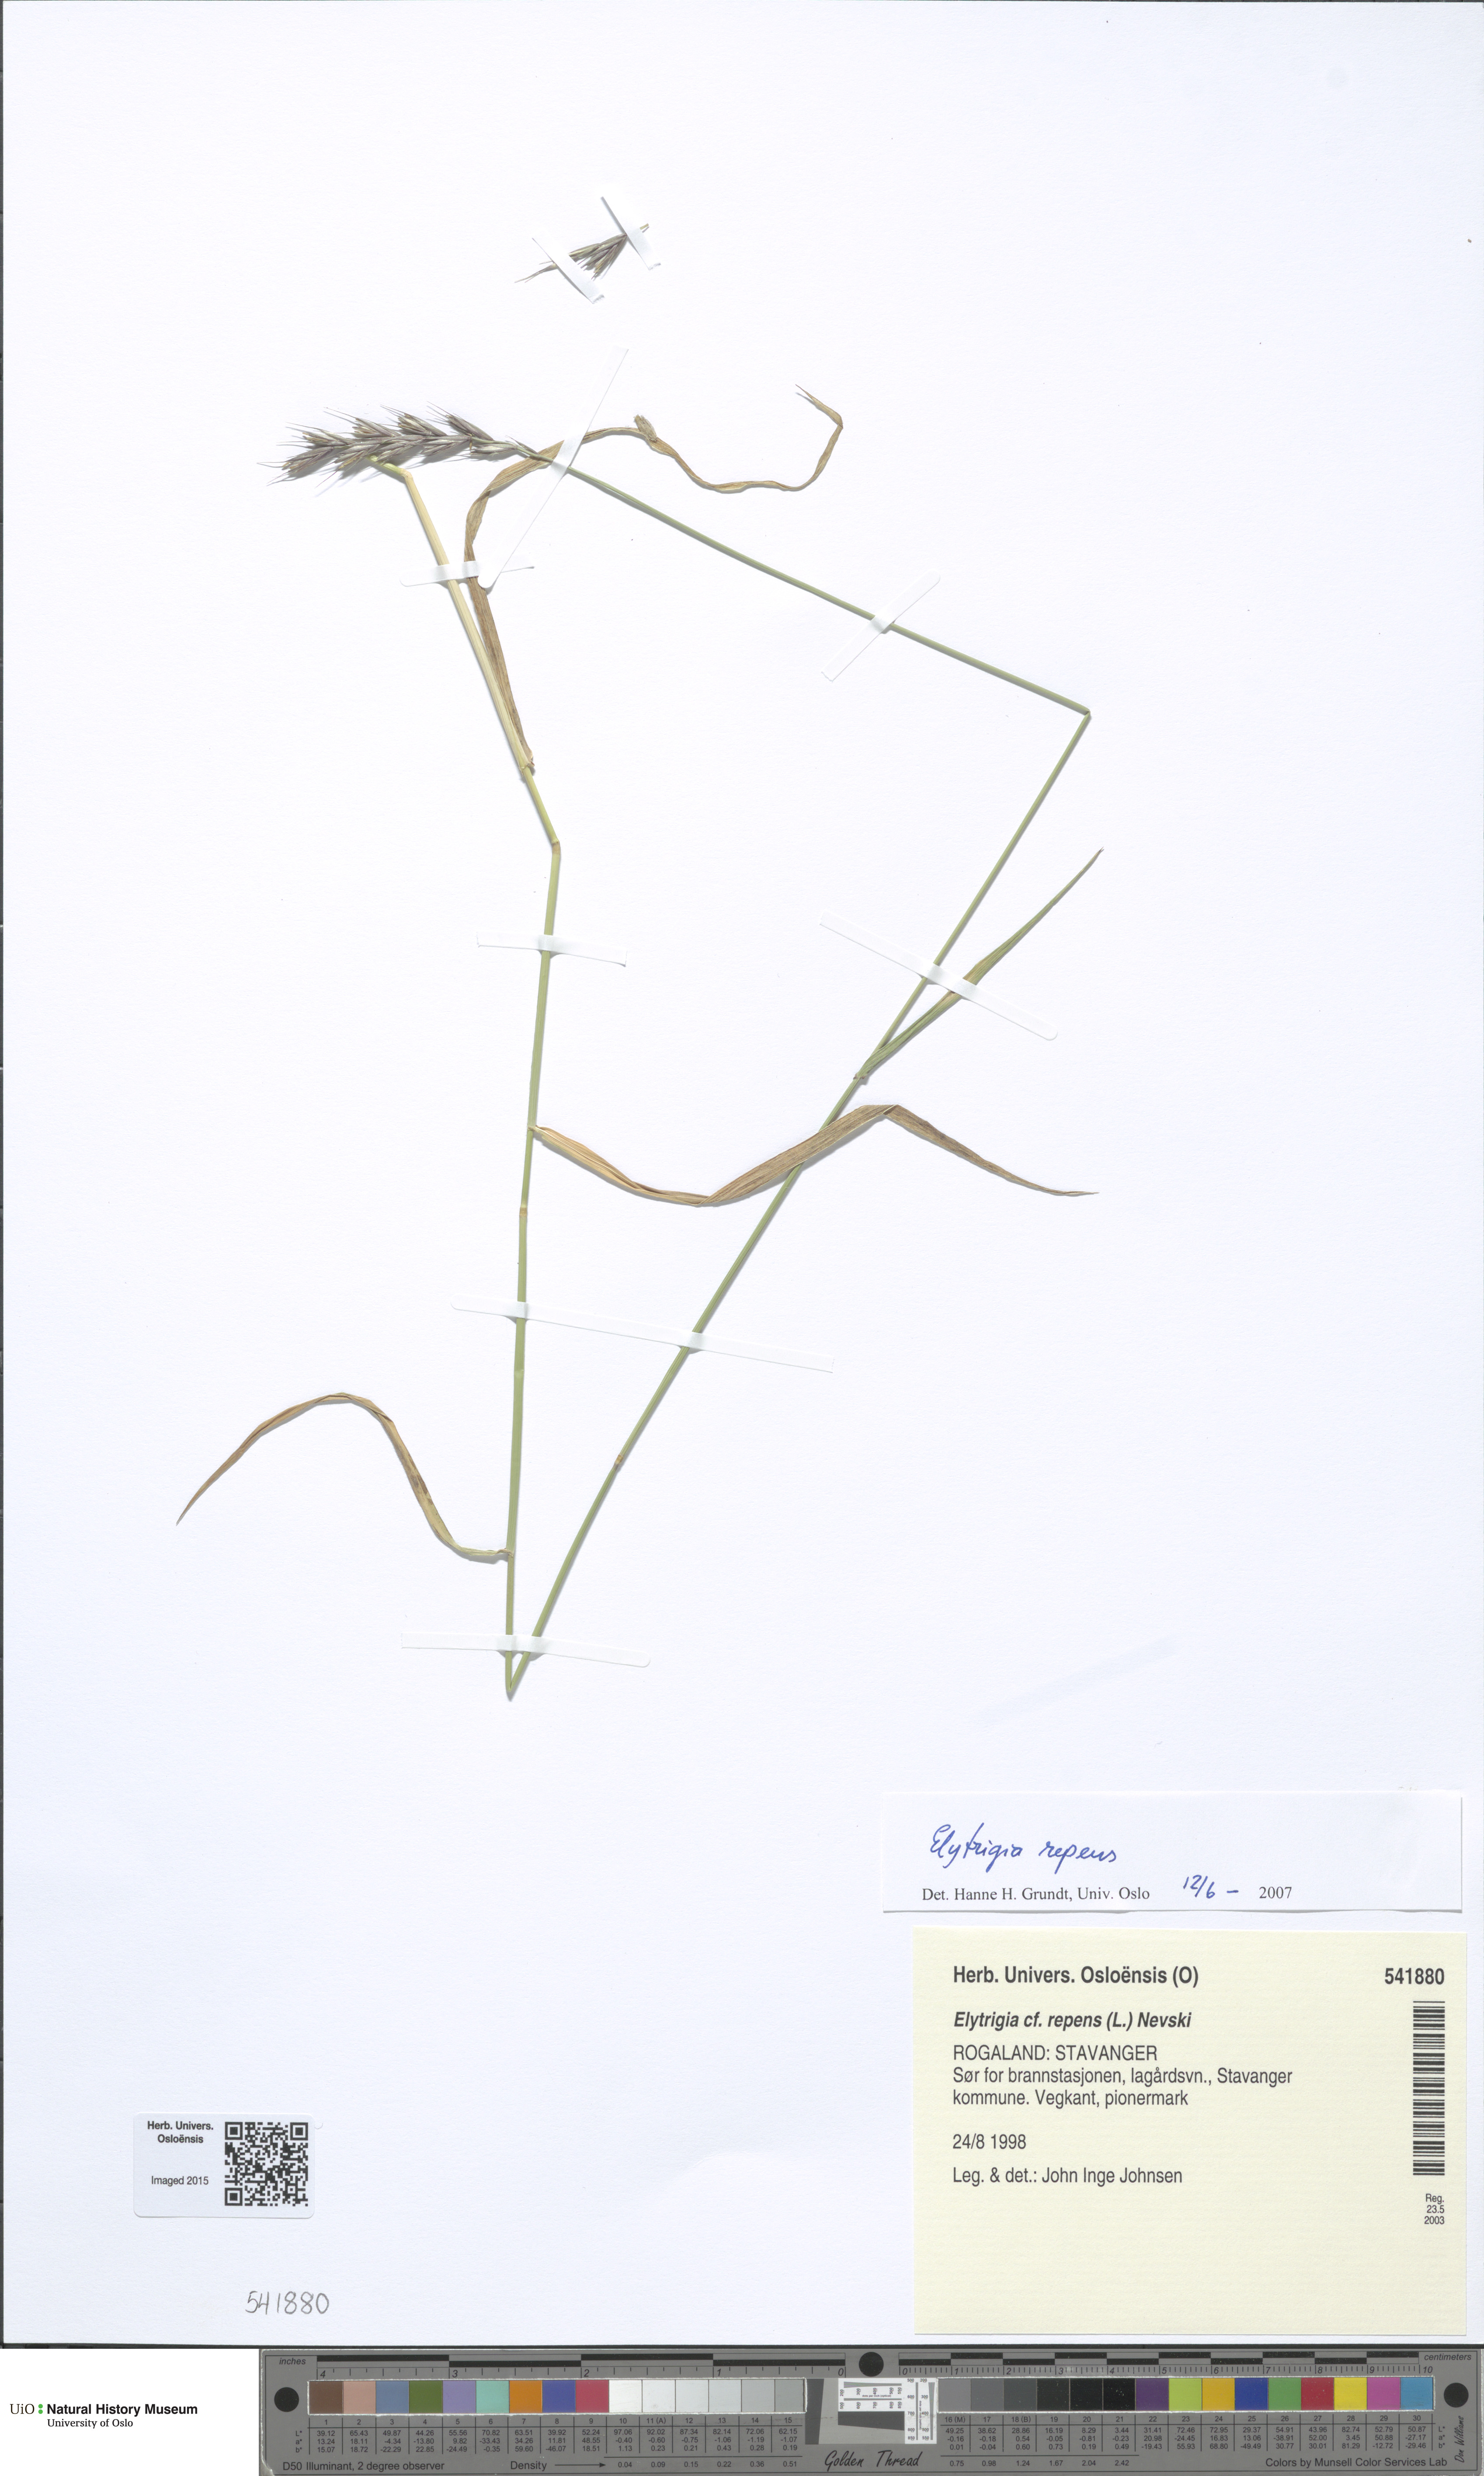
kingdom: Plantae
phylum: Tracheophyta
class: Liliopsida
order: Poales
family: Poaceae
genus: Elymus
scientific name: Elymus repens
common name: Quackgrass
